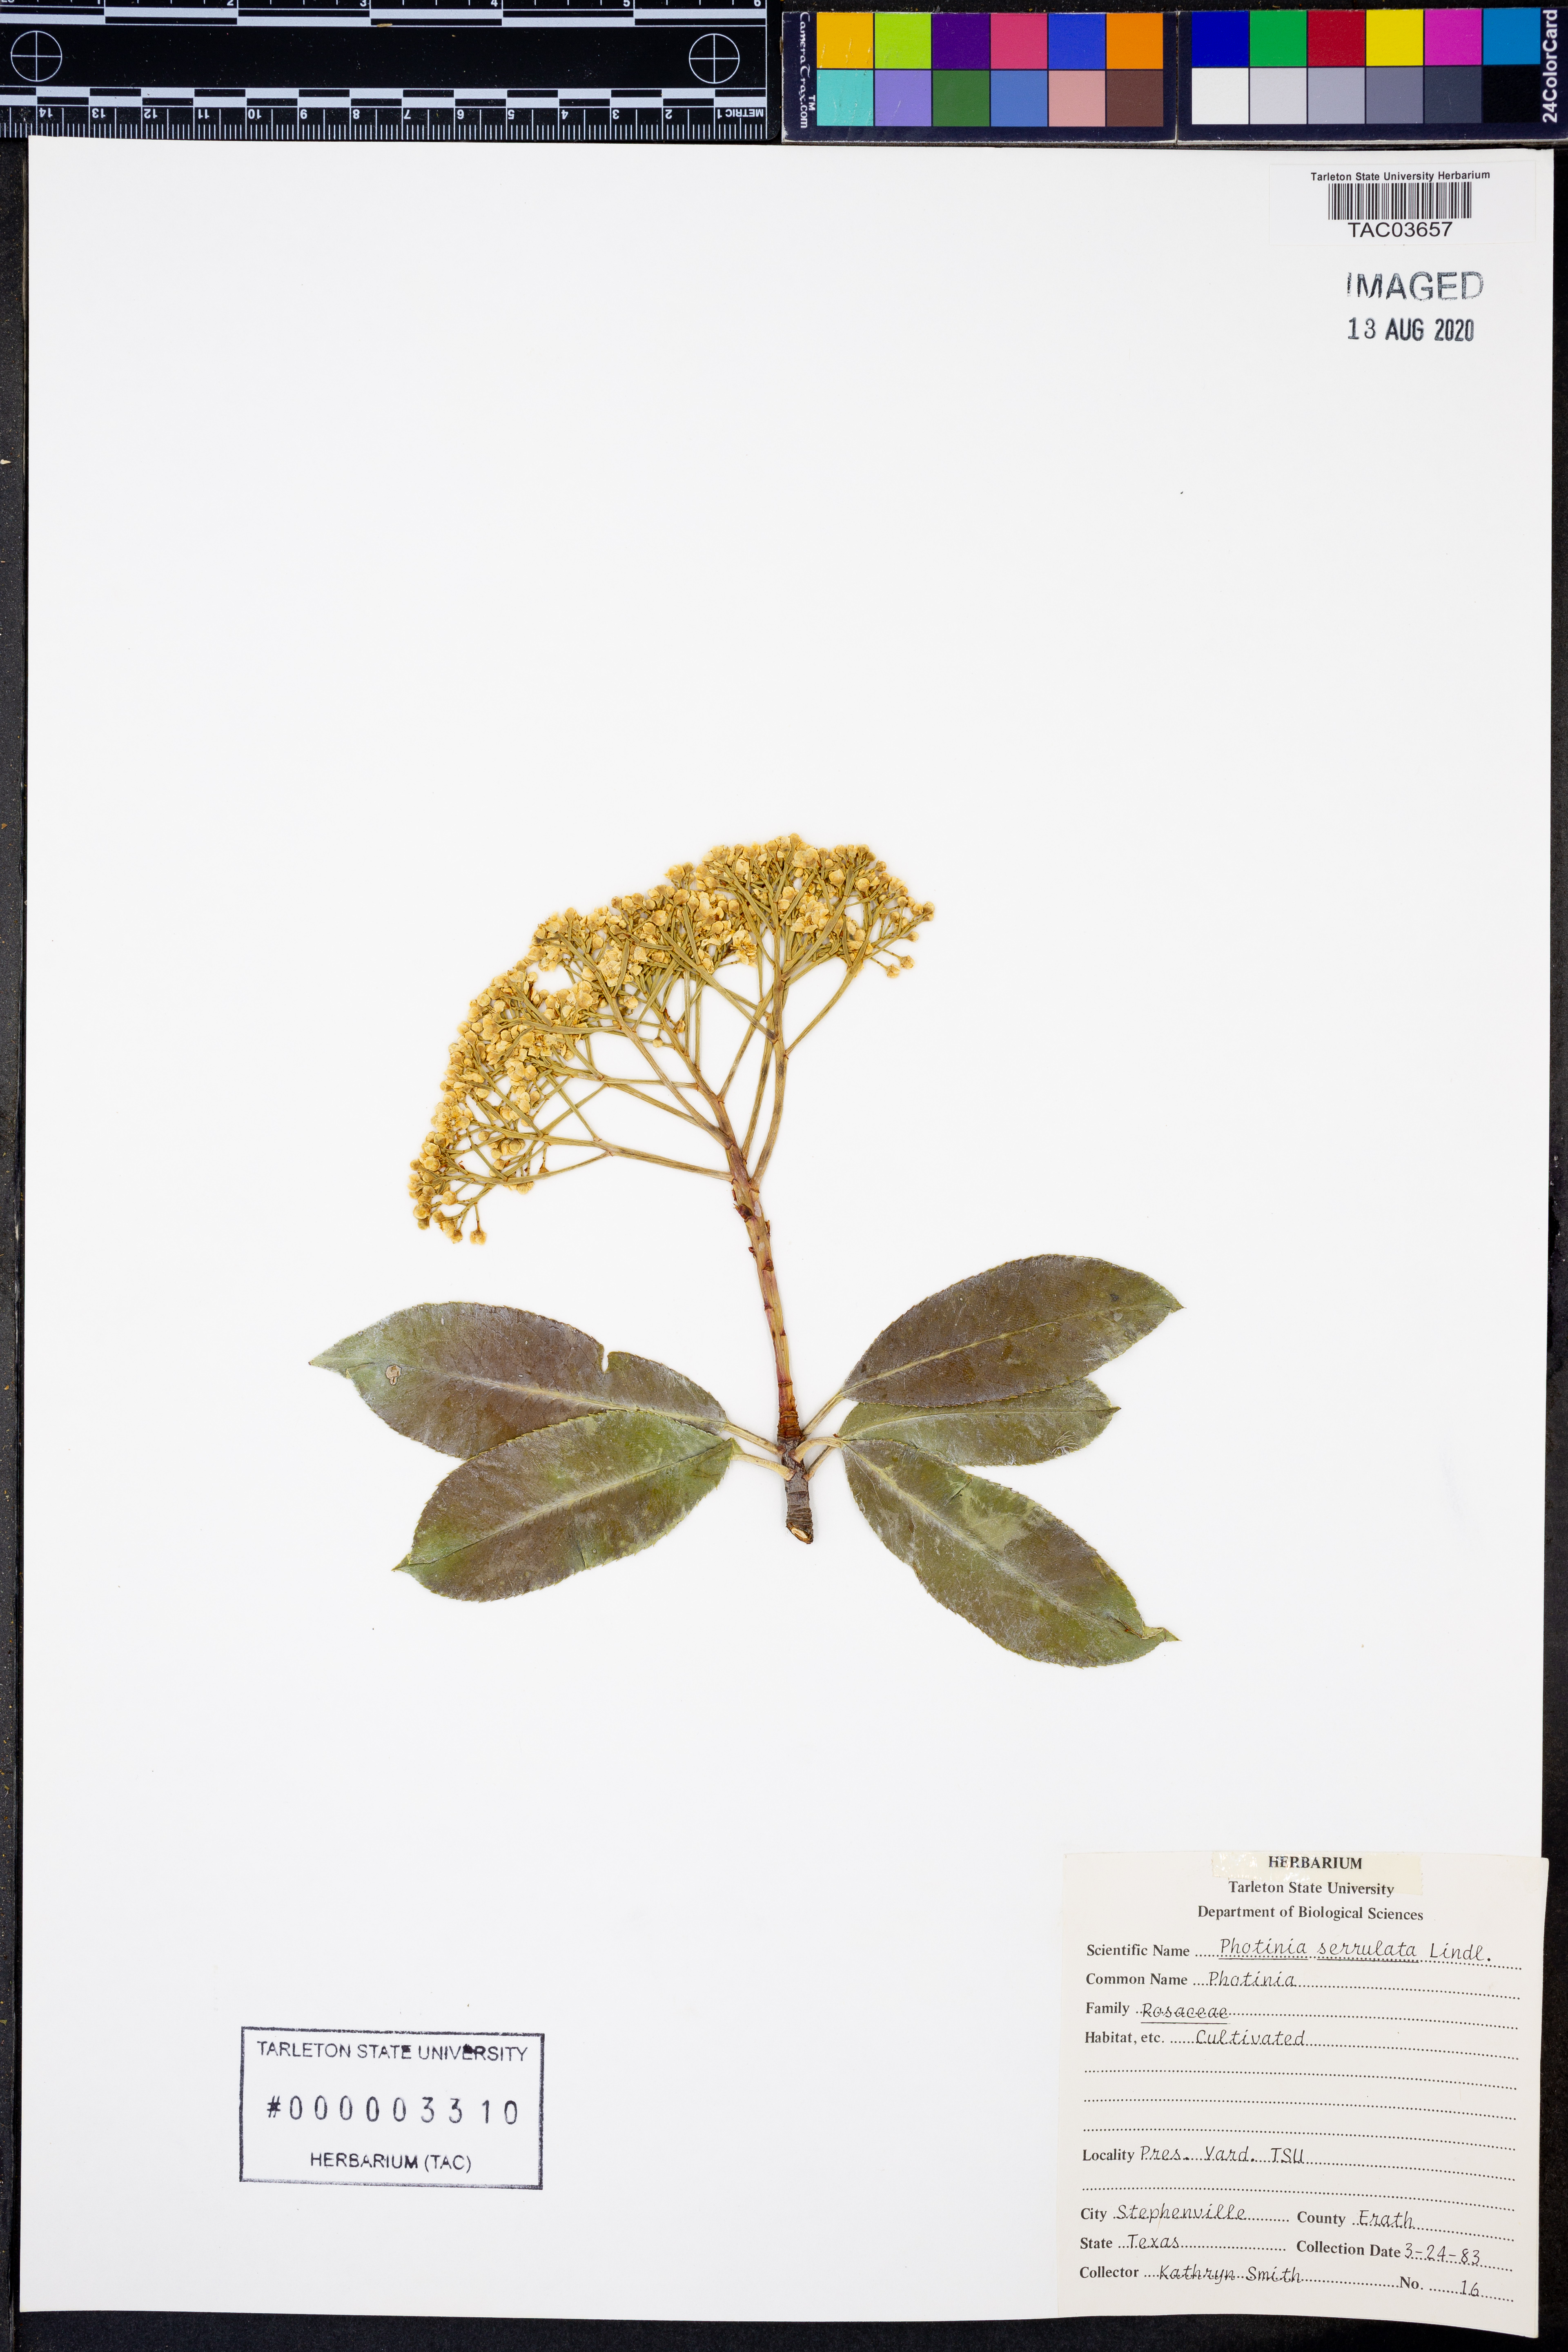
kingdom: Plantae
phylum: Tracheophyta
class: Magnoliopsida
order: Rosales
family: Rosaceae
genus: Photinia
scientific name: Photinia glabra
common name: Japanese photinia
